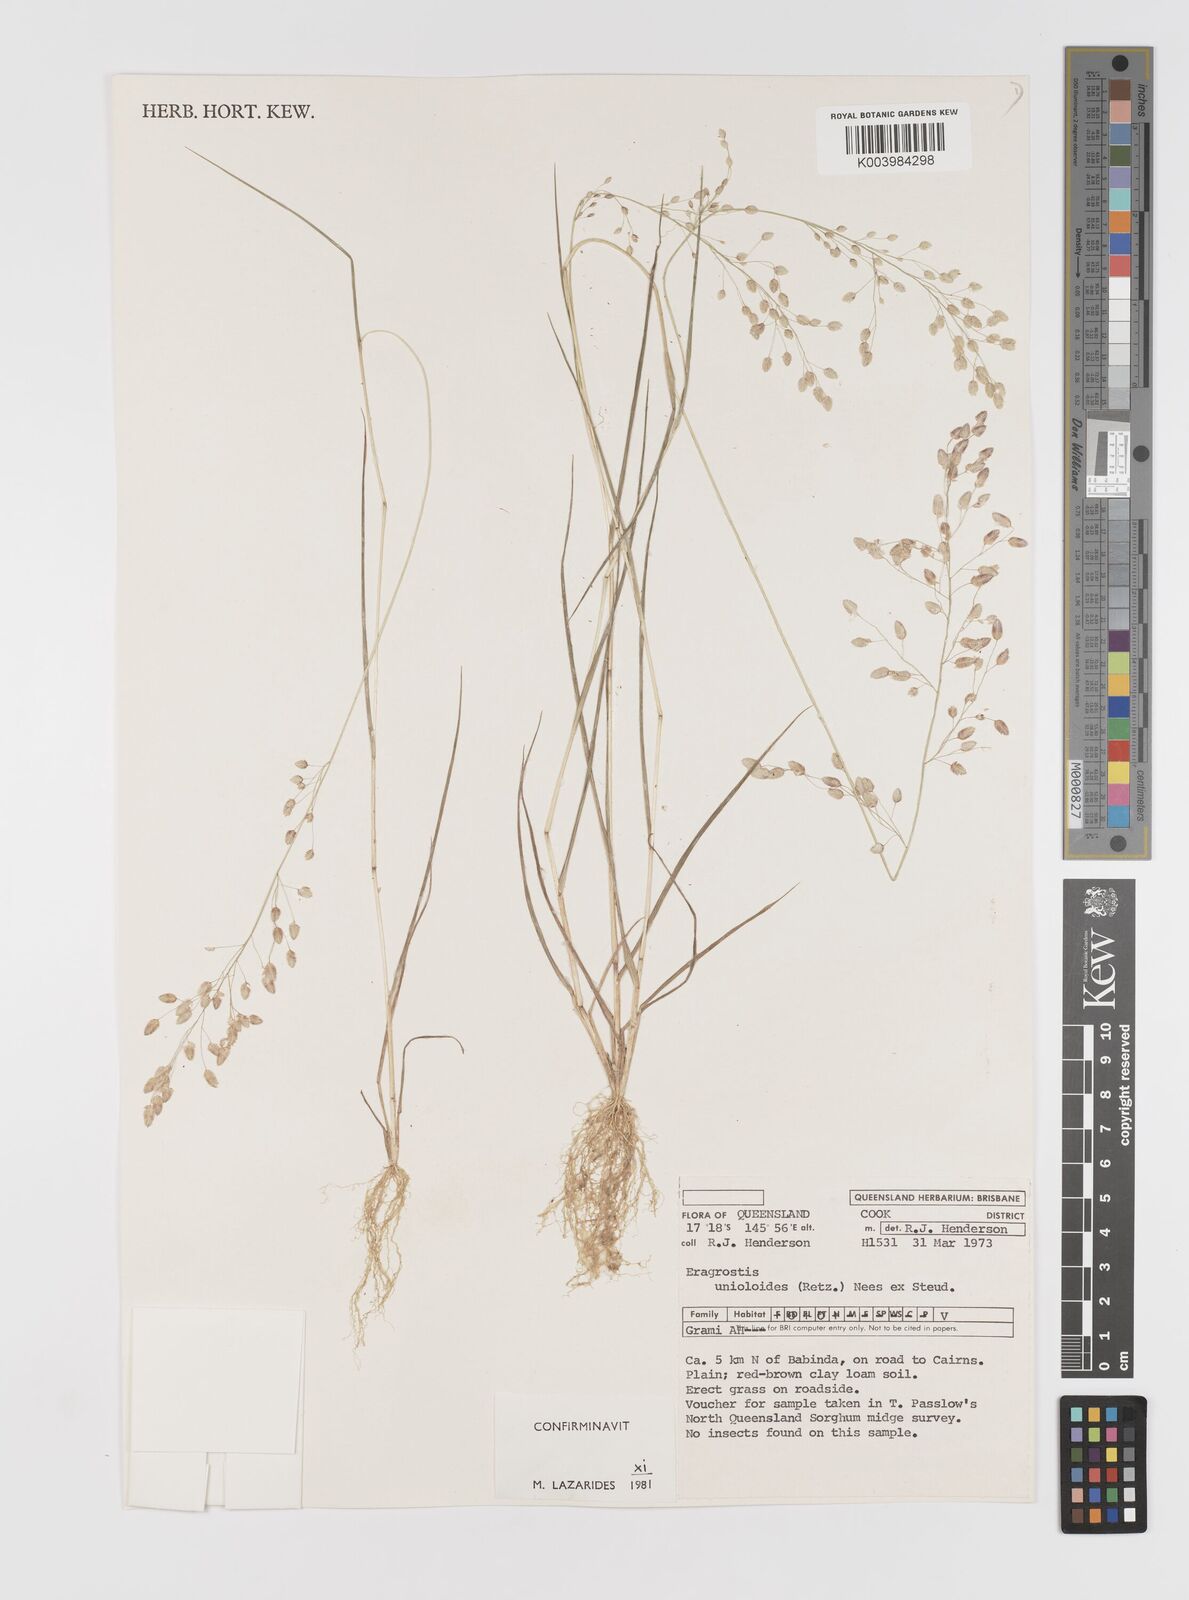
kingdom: Plantae
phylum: Tracheophyta
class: Liliopsida
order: Poales
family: Poaceae
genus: Eragrostis
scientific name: Eragrostis unioloides
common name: Chinese lovegrass
